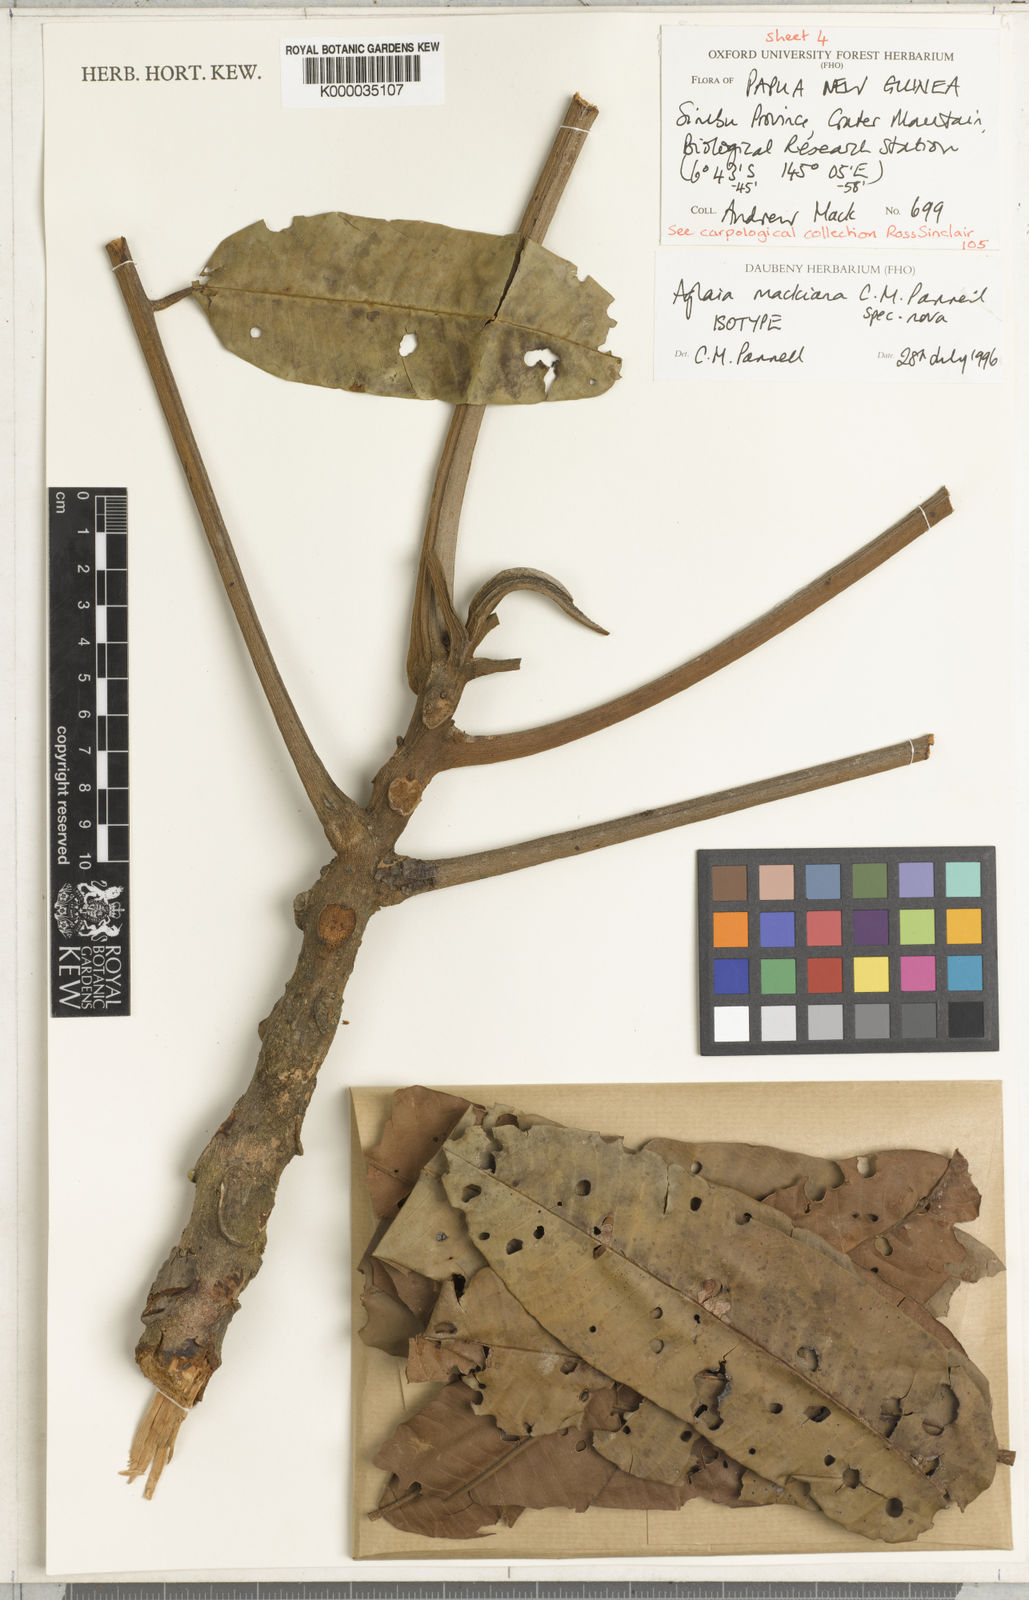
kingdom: Plantae
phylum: Tracheophyta
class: Magnoliopsida
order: Sapindales
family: Meliaceae
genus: Aglaia
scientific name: Aglaia mackiana
